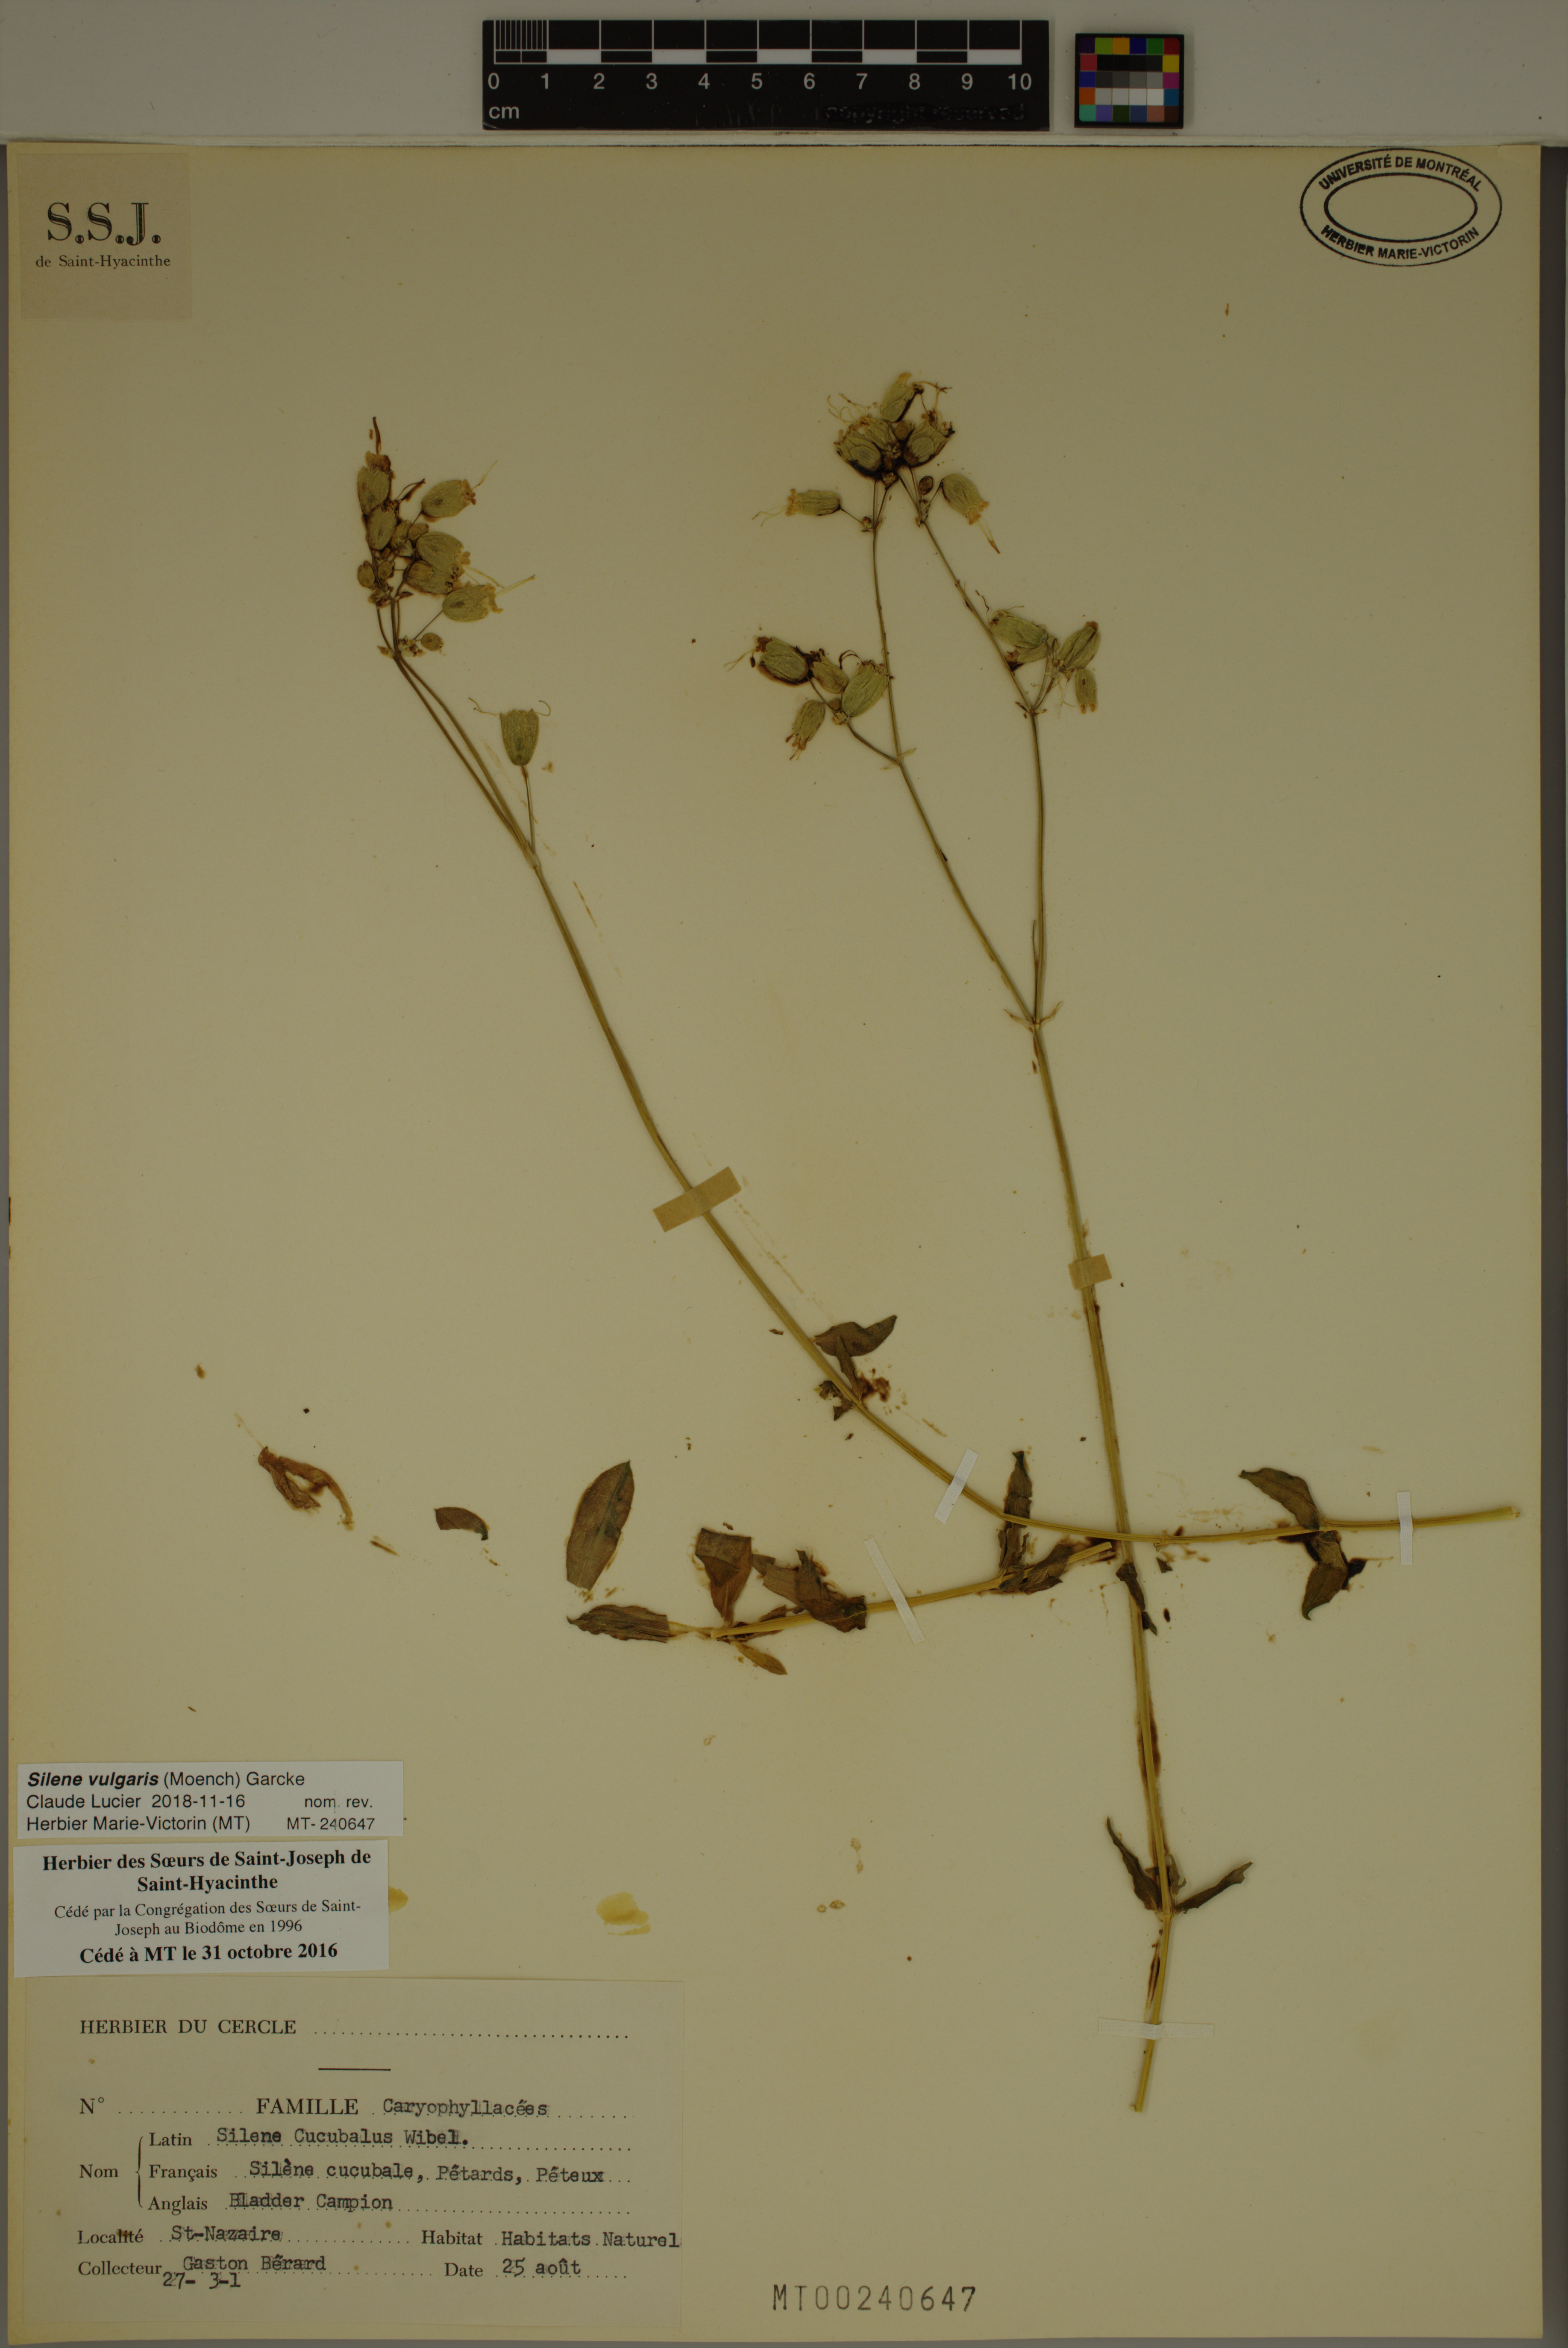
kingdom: Plantae
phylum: Tracheophyta
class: Magnoliopsida
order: Caryophyllales
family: Caryophyllaceae
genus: Silene
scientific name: Silene vulgaris
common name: Bladder campion
